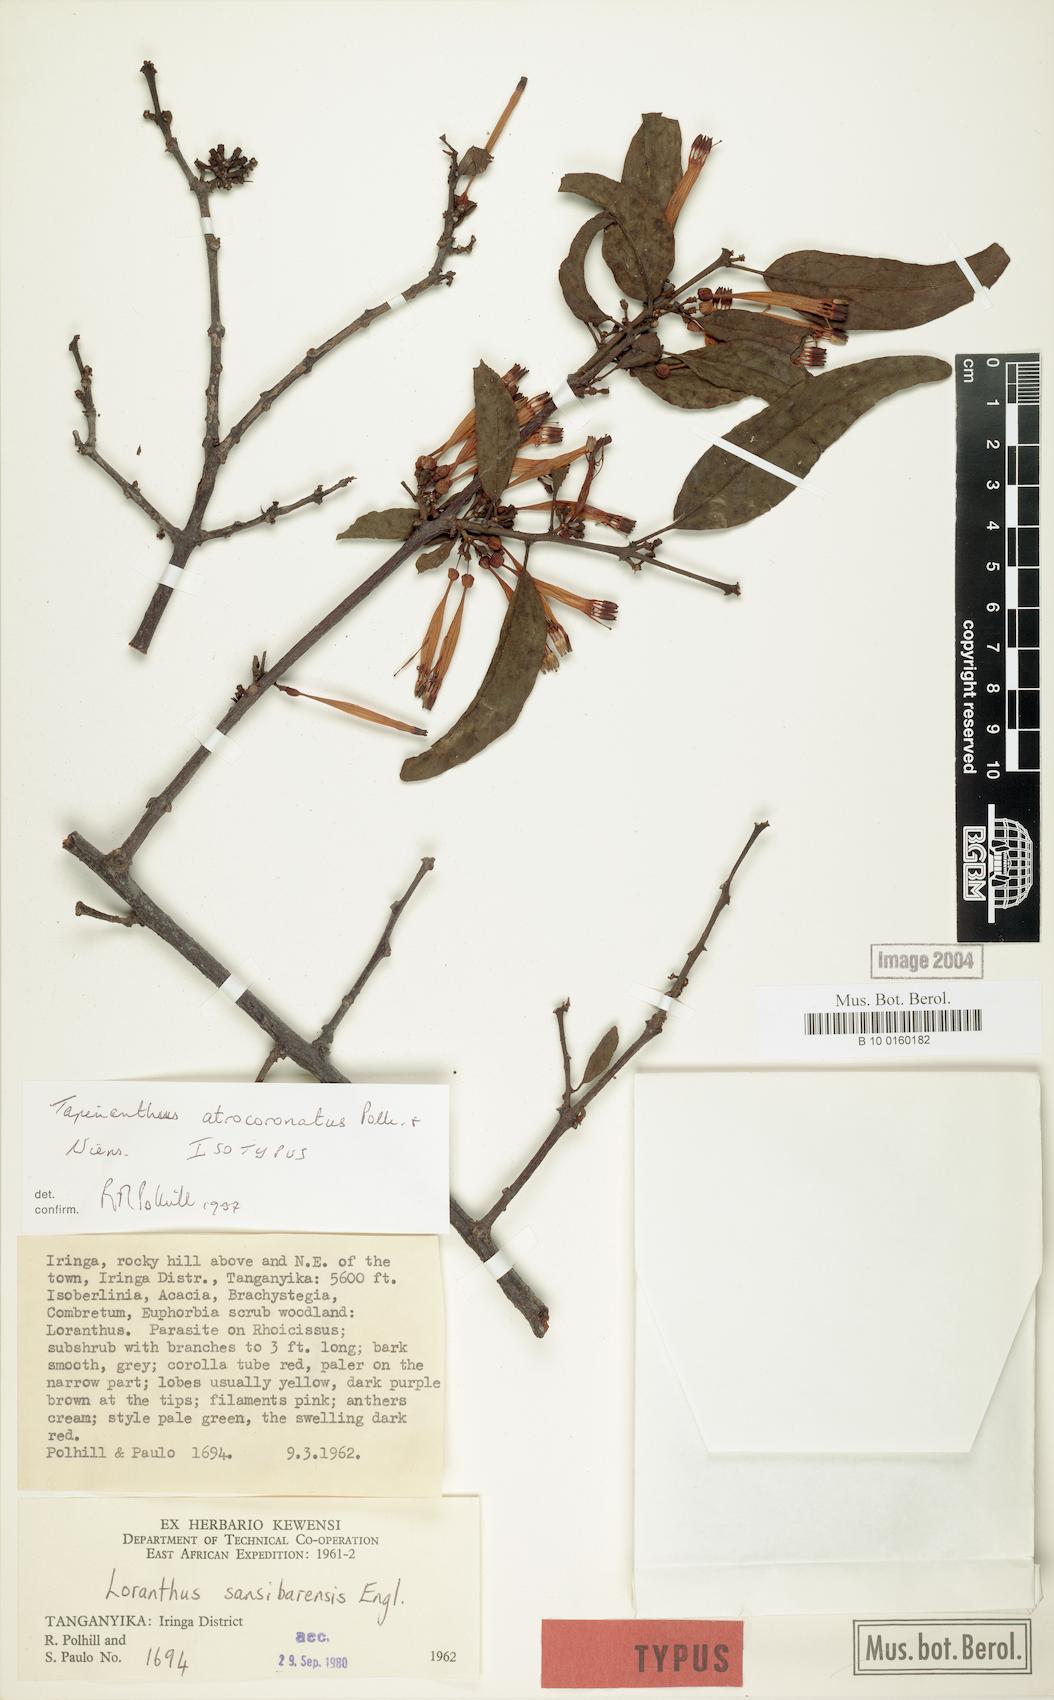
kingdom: Plantae
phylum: Tracheophyta
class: Magnoliopsida
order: Santalales
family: Loranthaceae
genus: Agelanthus
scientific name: Agelanthus atrocoronatus
